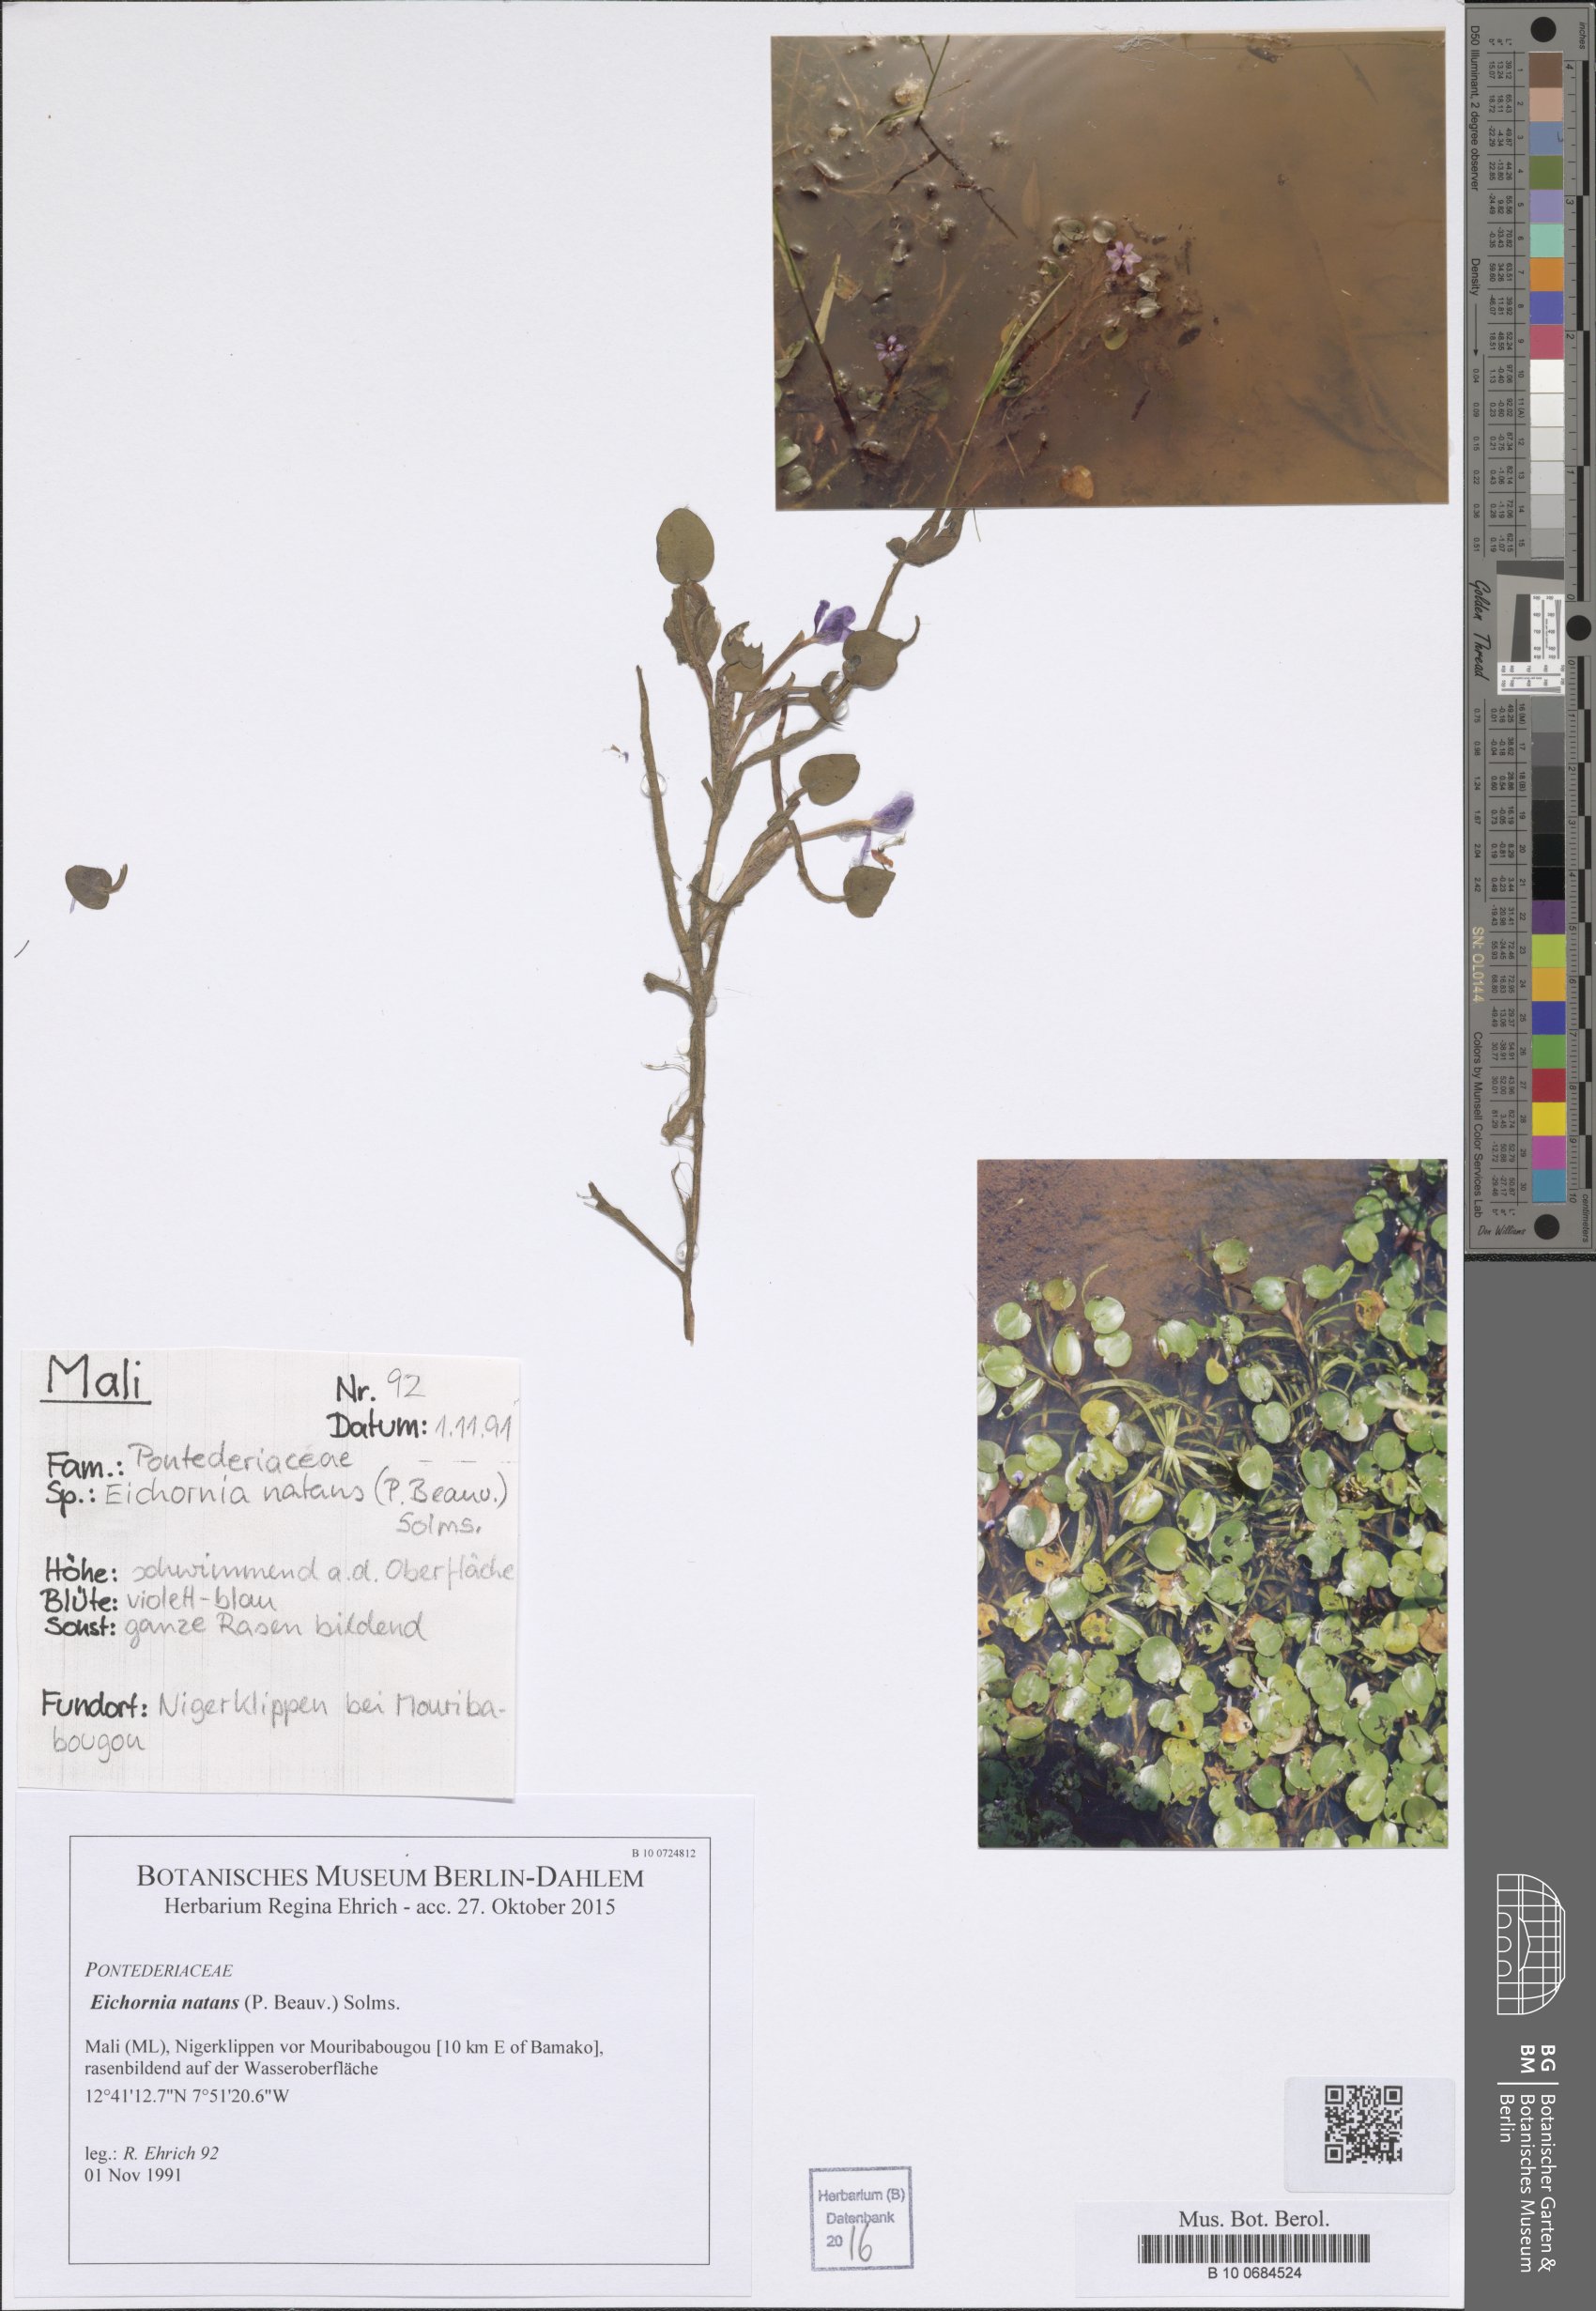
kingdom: Plantae
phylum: Tracheophyta
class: Liliopsida
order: Commelinales
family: Pontederiaceae
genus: Pontederia
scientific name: Pontederia diversifolia
